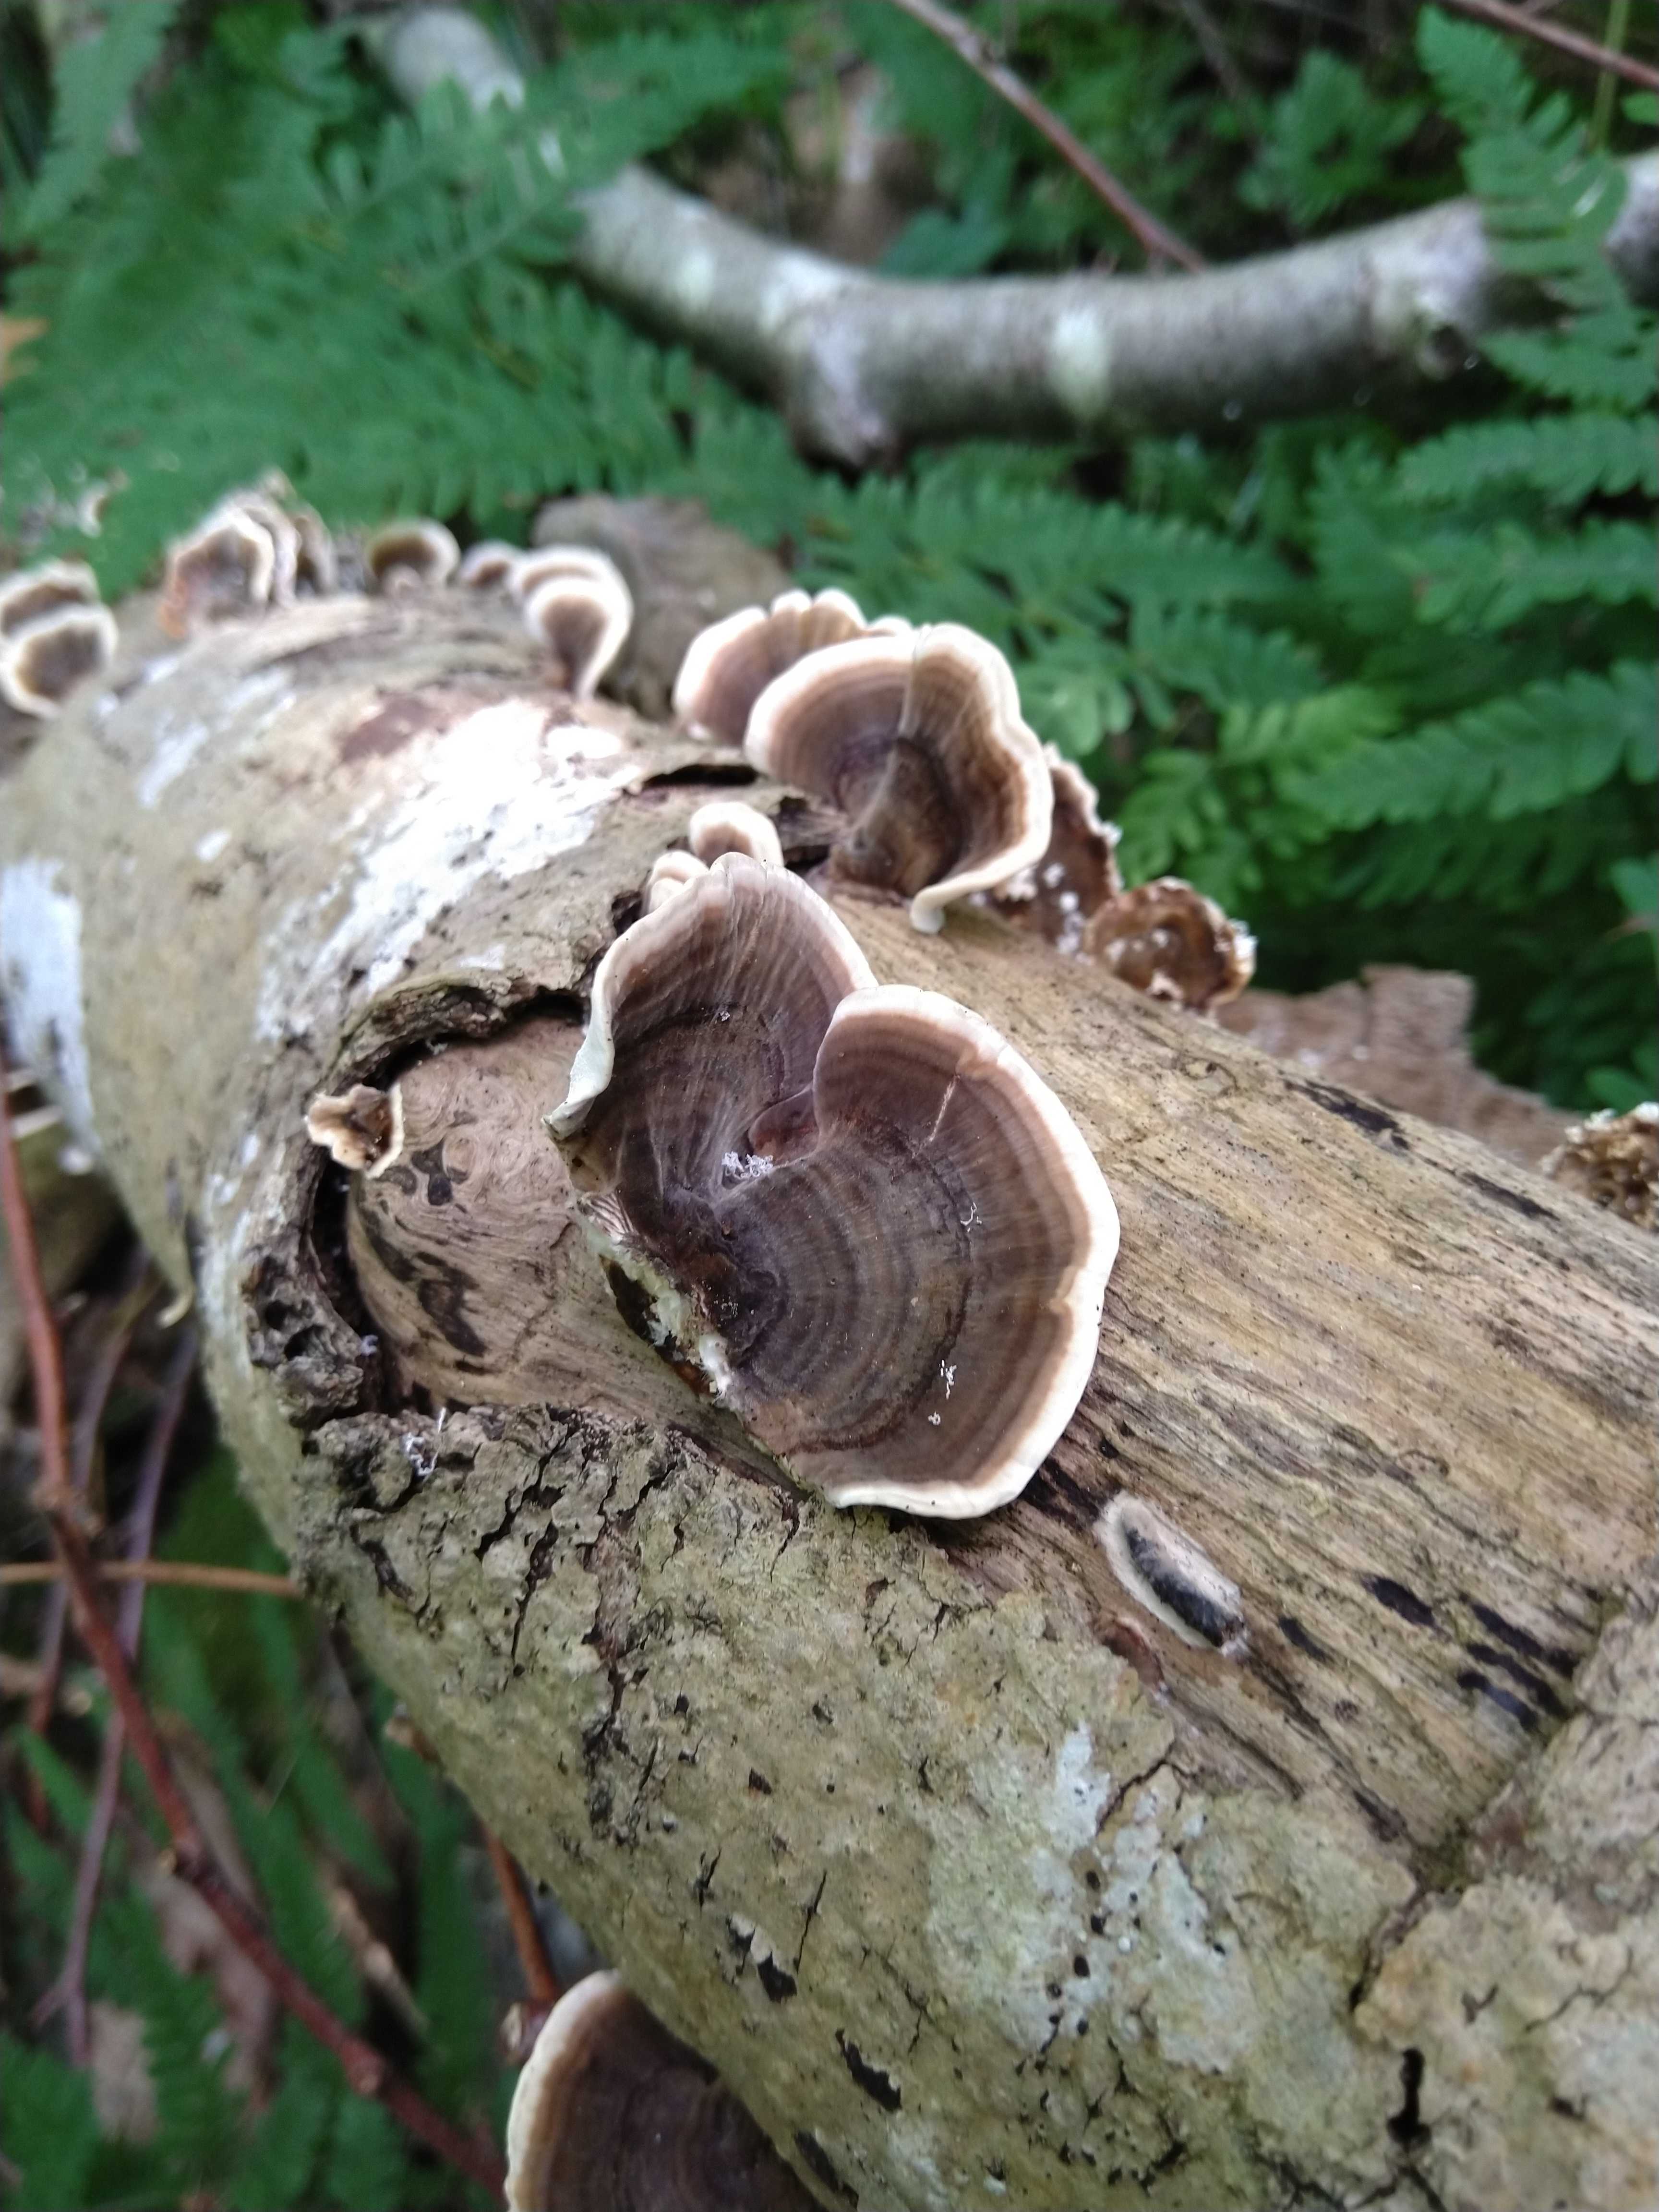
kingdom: Fungi
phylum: Basidiomycota
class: Agaricomycetes
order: Polyporales
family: Polyporaceae
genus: Trametes
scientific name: Trametes versicolor
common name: broget læderporesvamp
